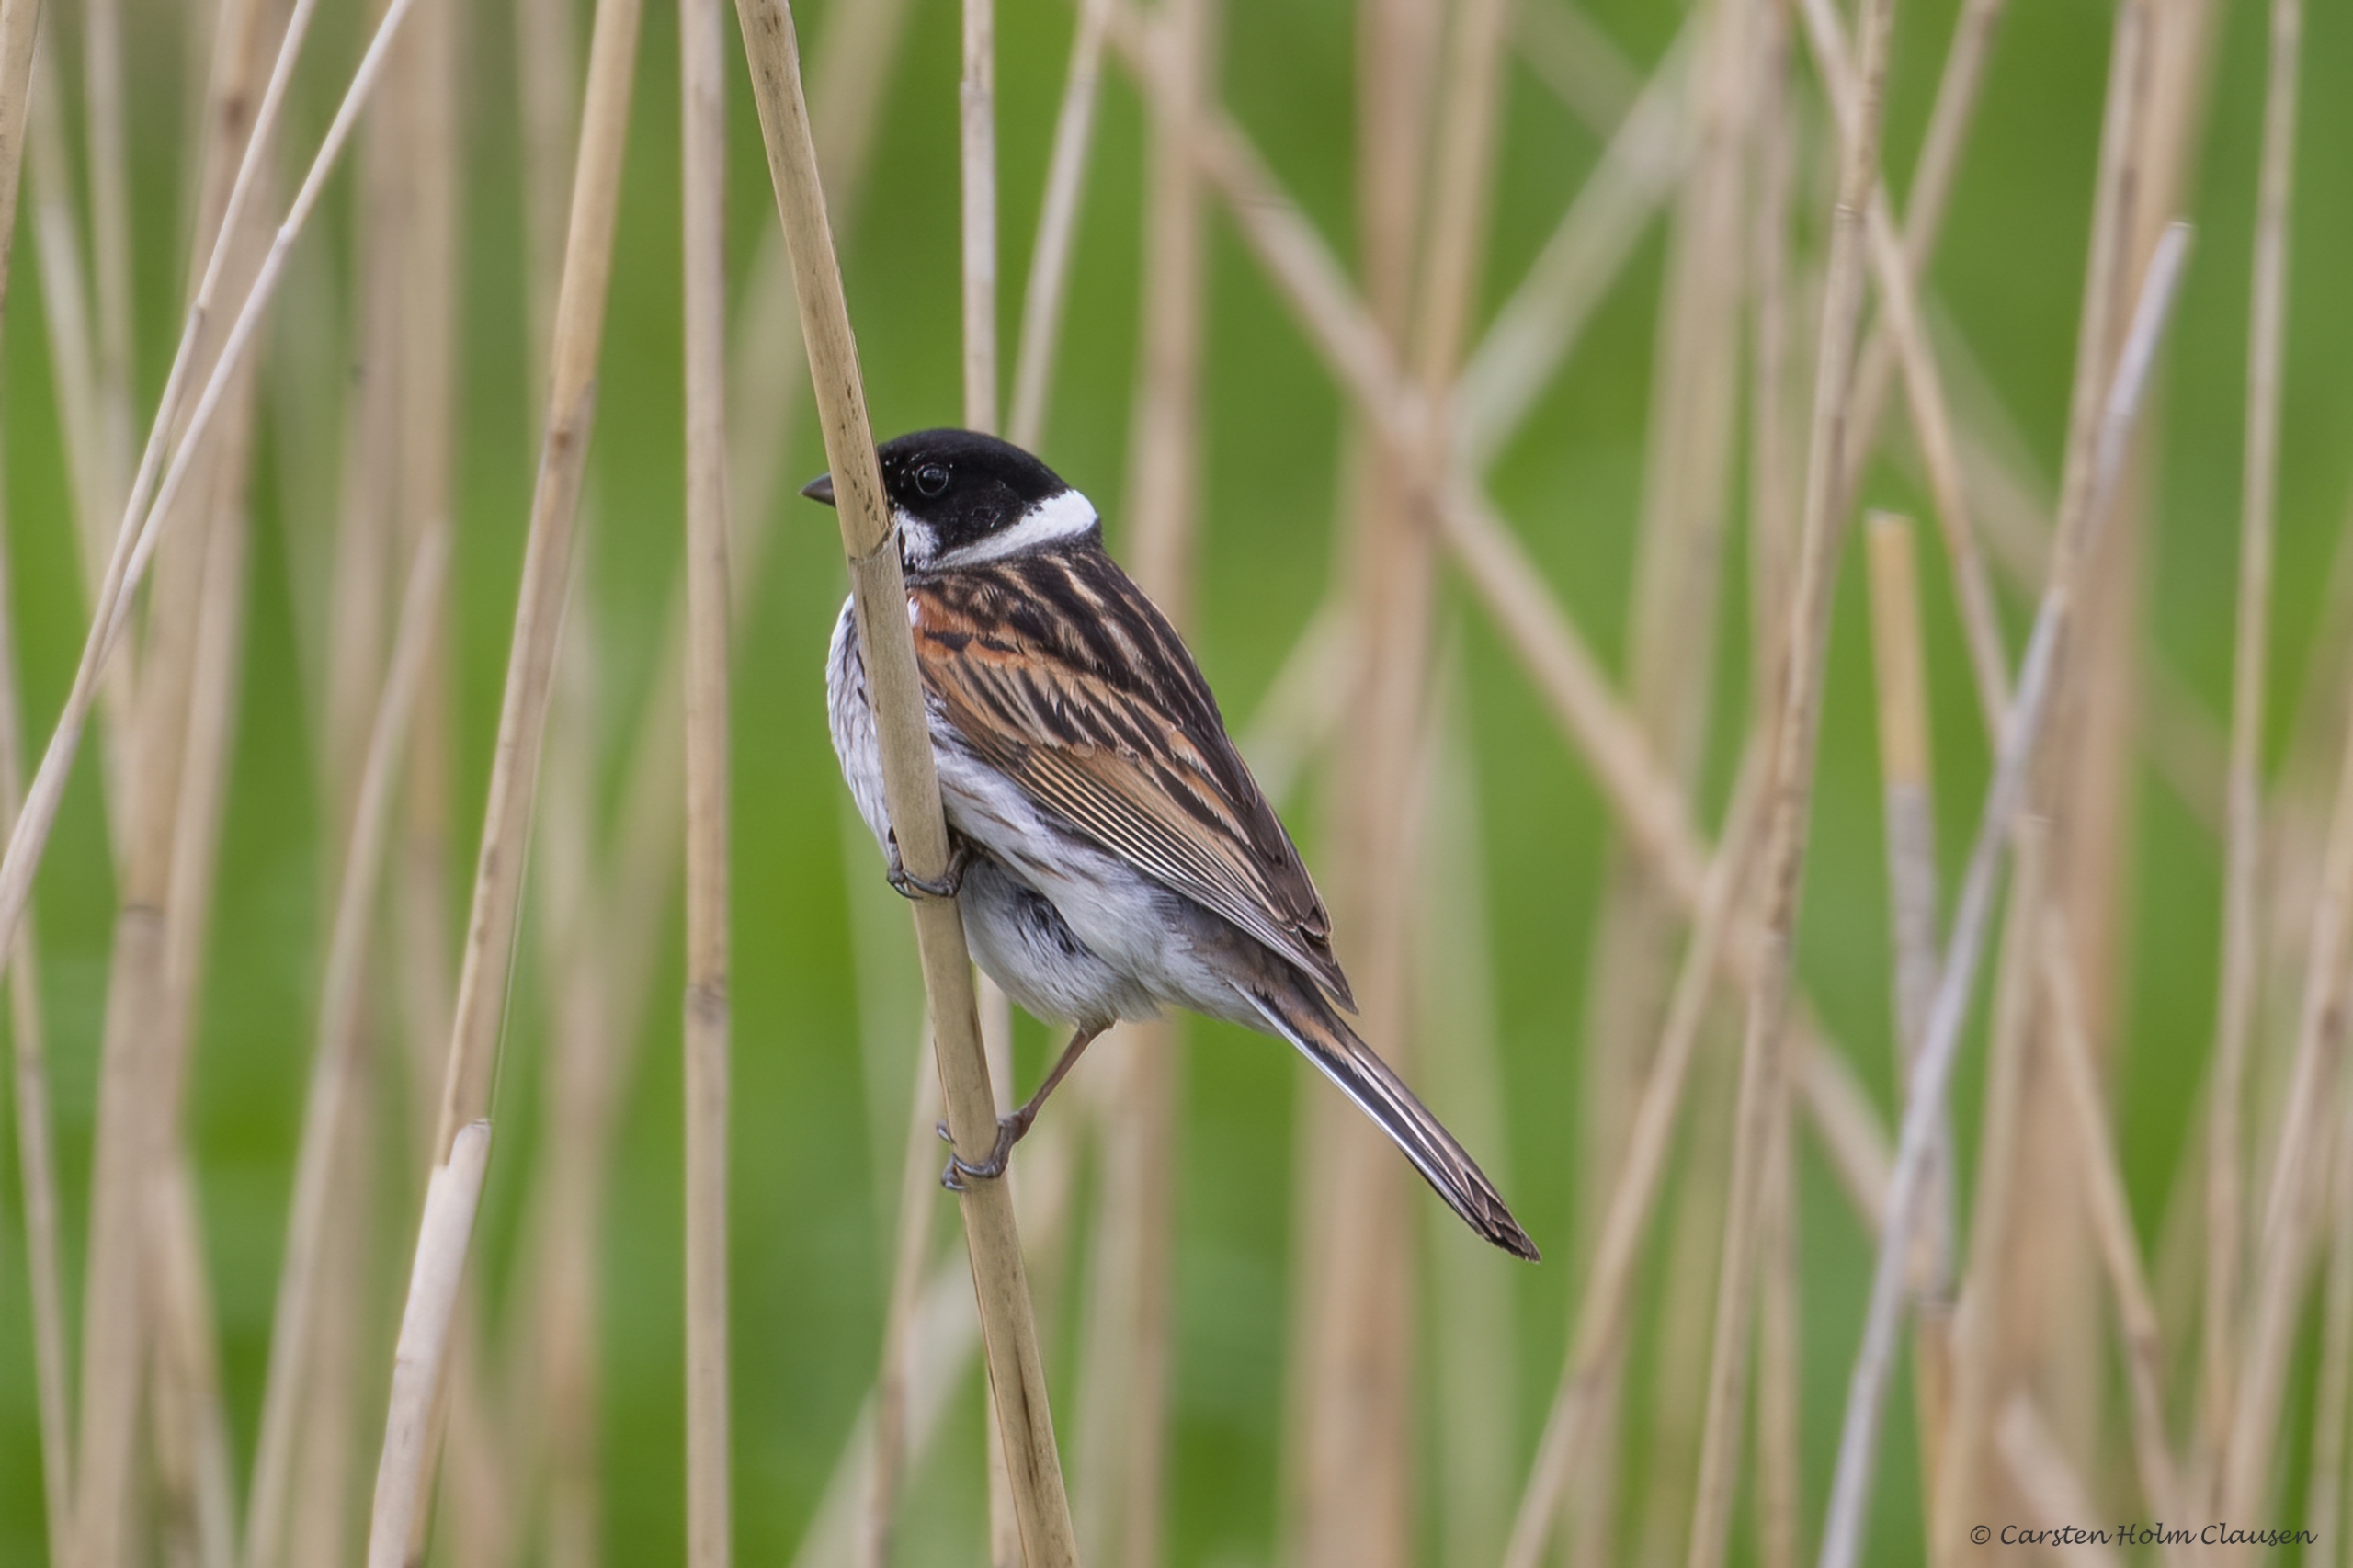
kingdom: Animalia
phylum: Chordata
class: Aves
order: Passeriformes
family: Emberizidae
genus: Emberiza
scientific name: Emberiza schoeniclus
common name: Rørspurv
